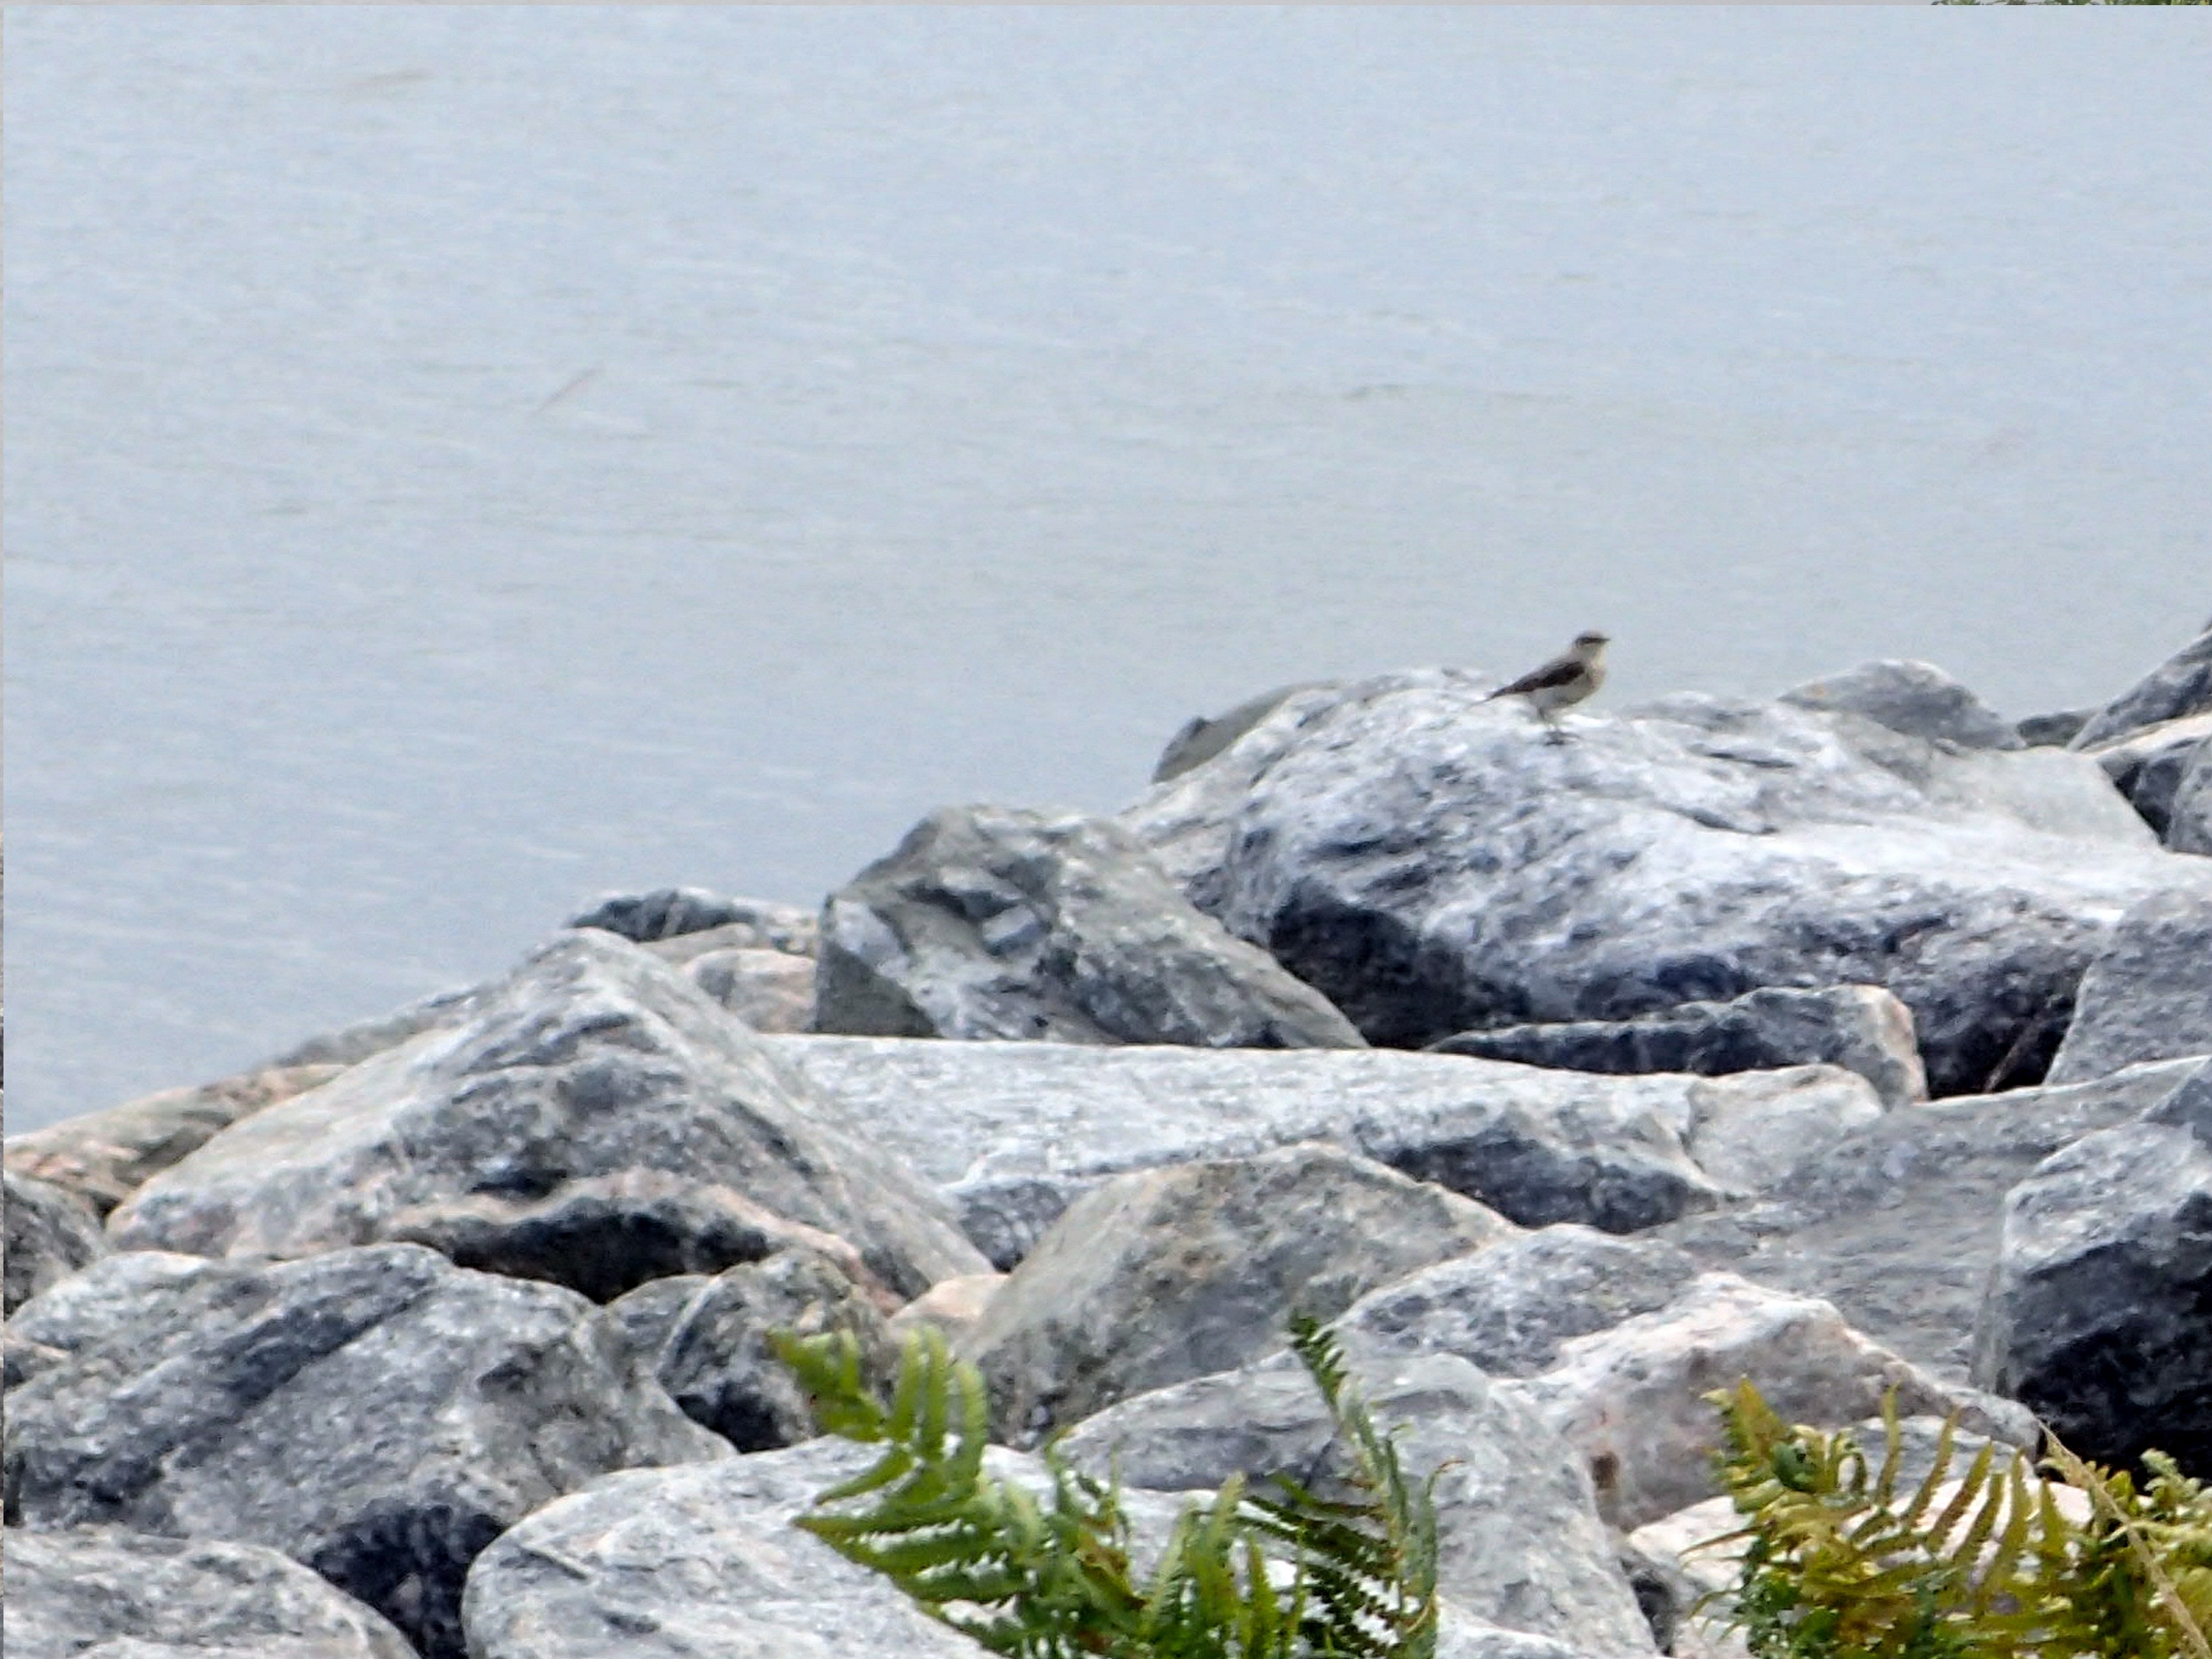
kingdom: Animalia
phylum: Chordata
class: Aves
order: Passeriformes
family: Muscicapidae
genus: Oenanthe
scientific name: Oenanthe oenanthe
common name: Stenpikker
